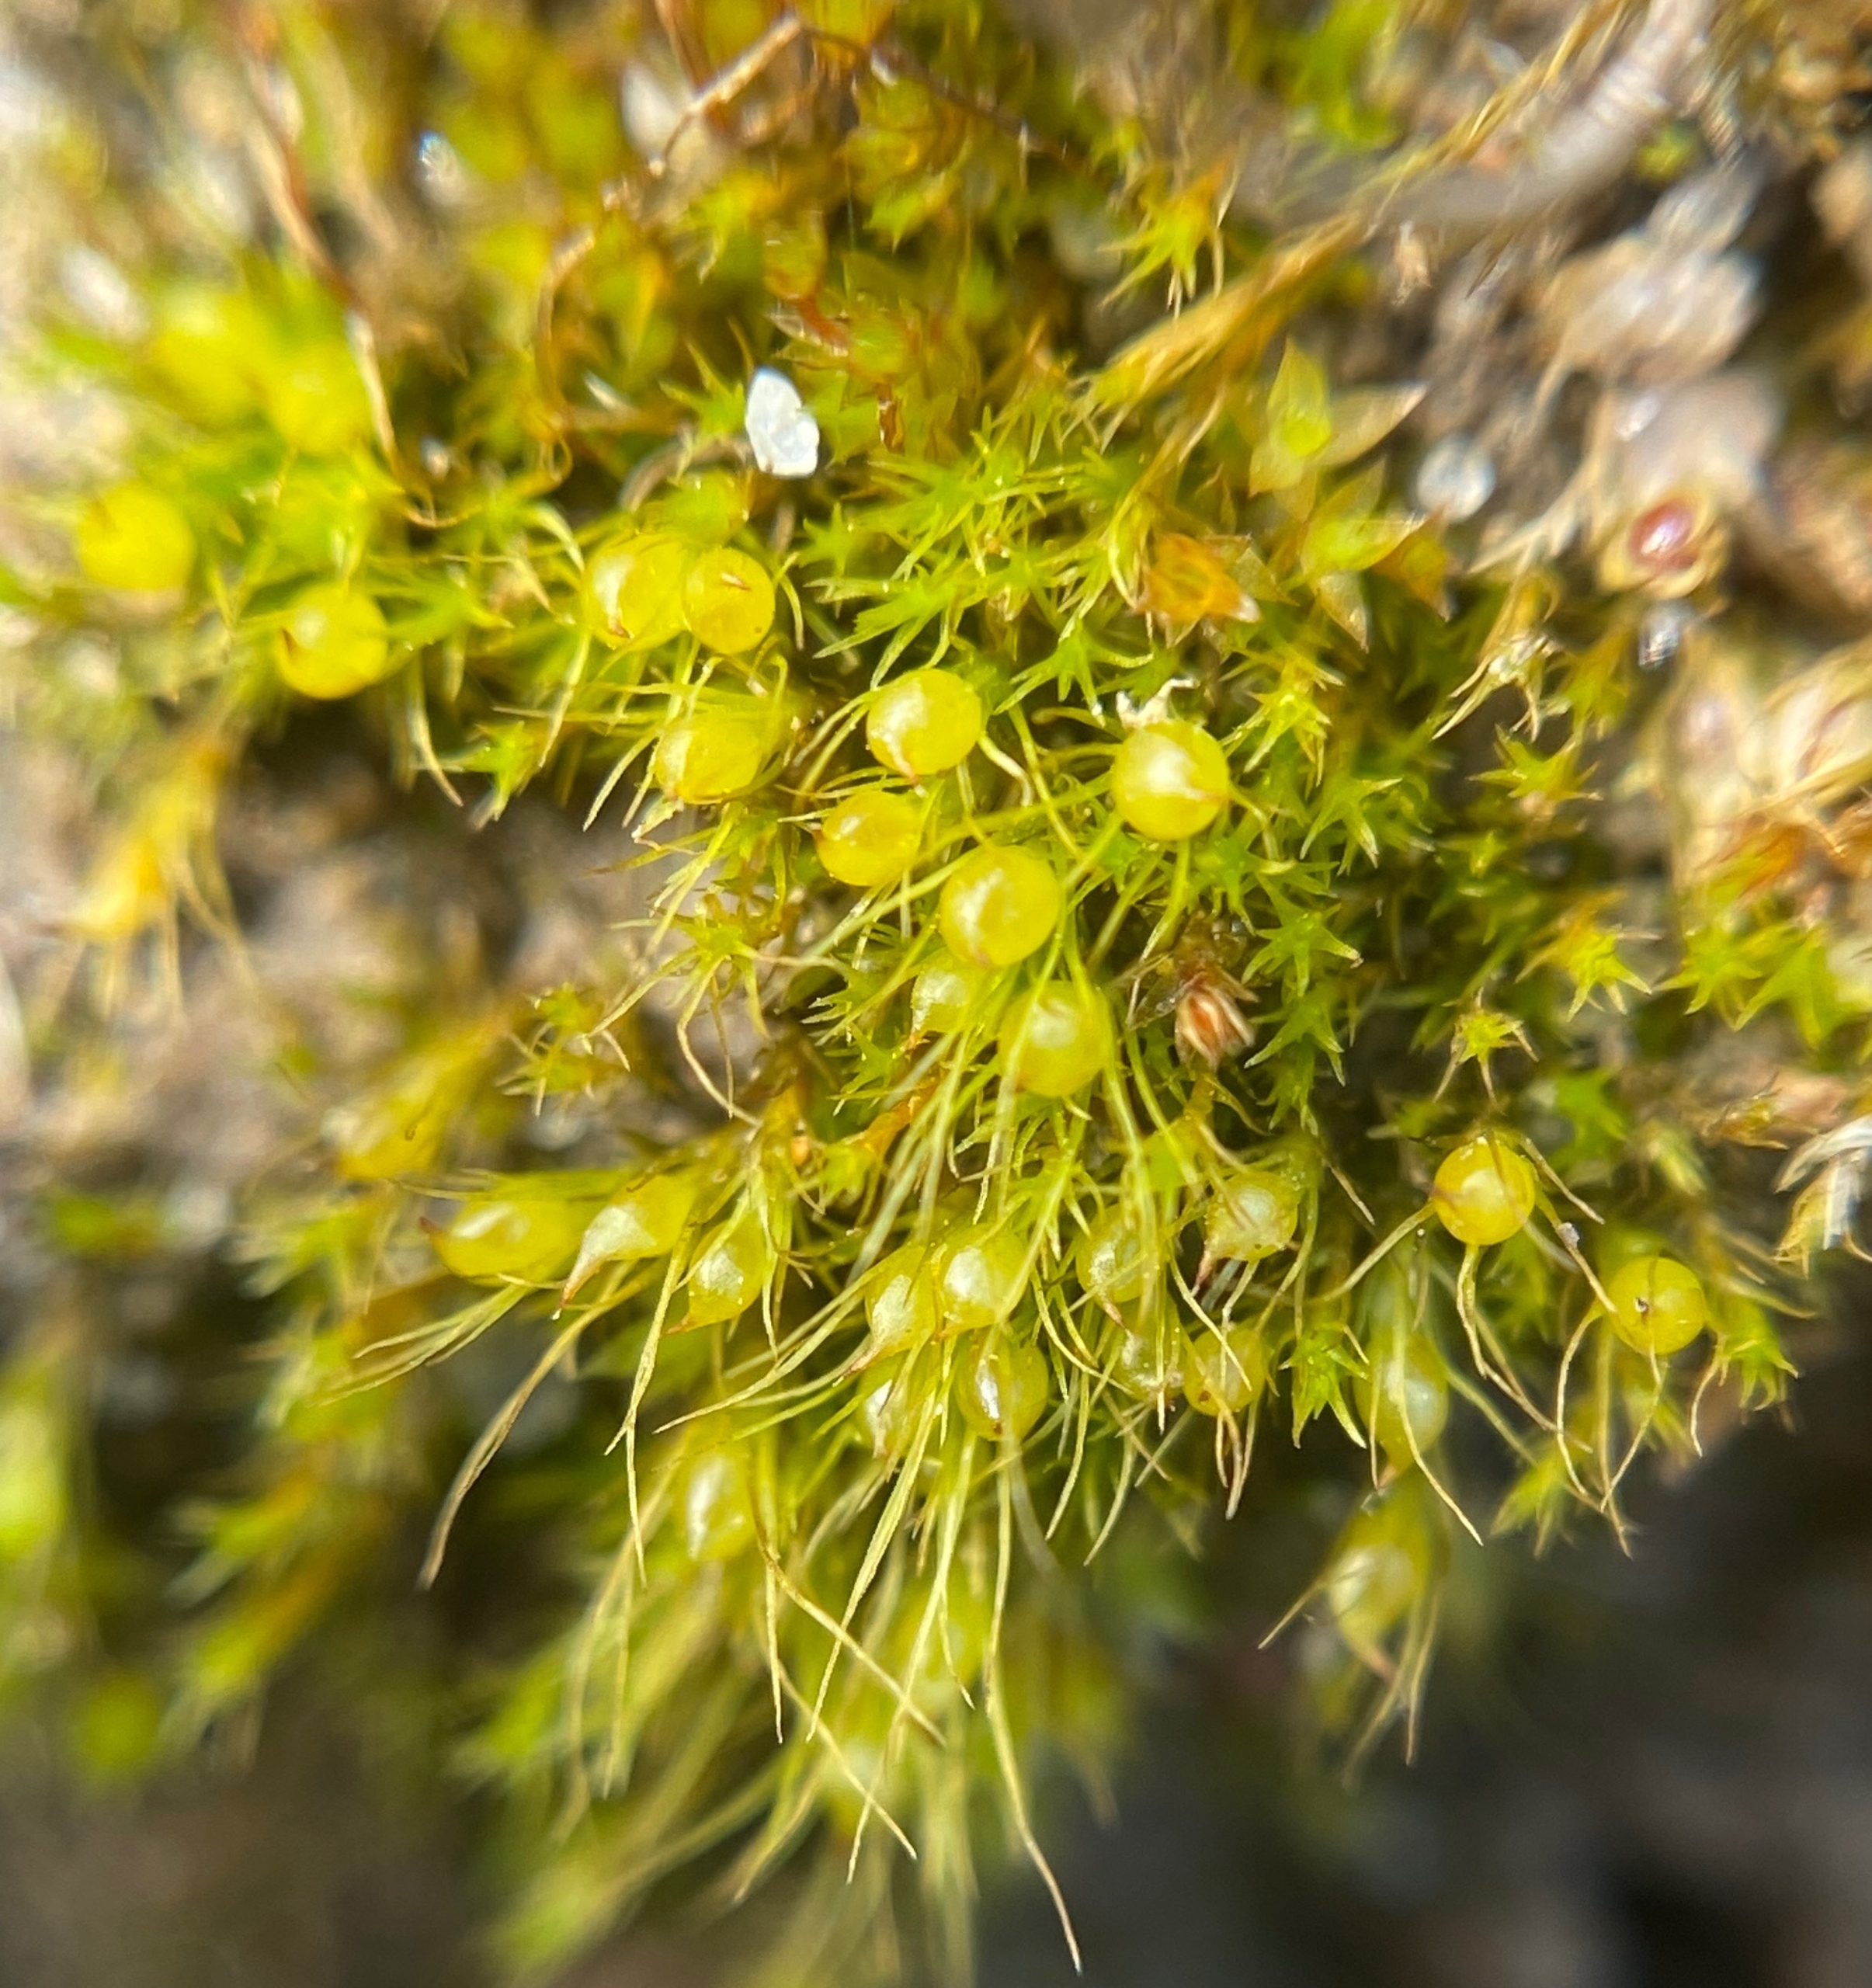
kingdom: Plantae
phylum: Bryophyta
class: Bryopsida
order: Dicranales
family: Ditrichaceae
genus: Pleuridium
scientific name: Pleuridium subulatum
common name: Kortstilket sylbladsmos
